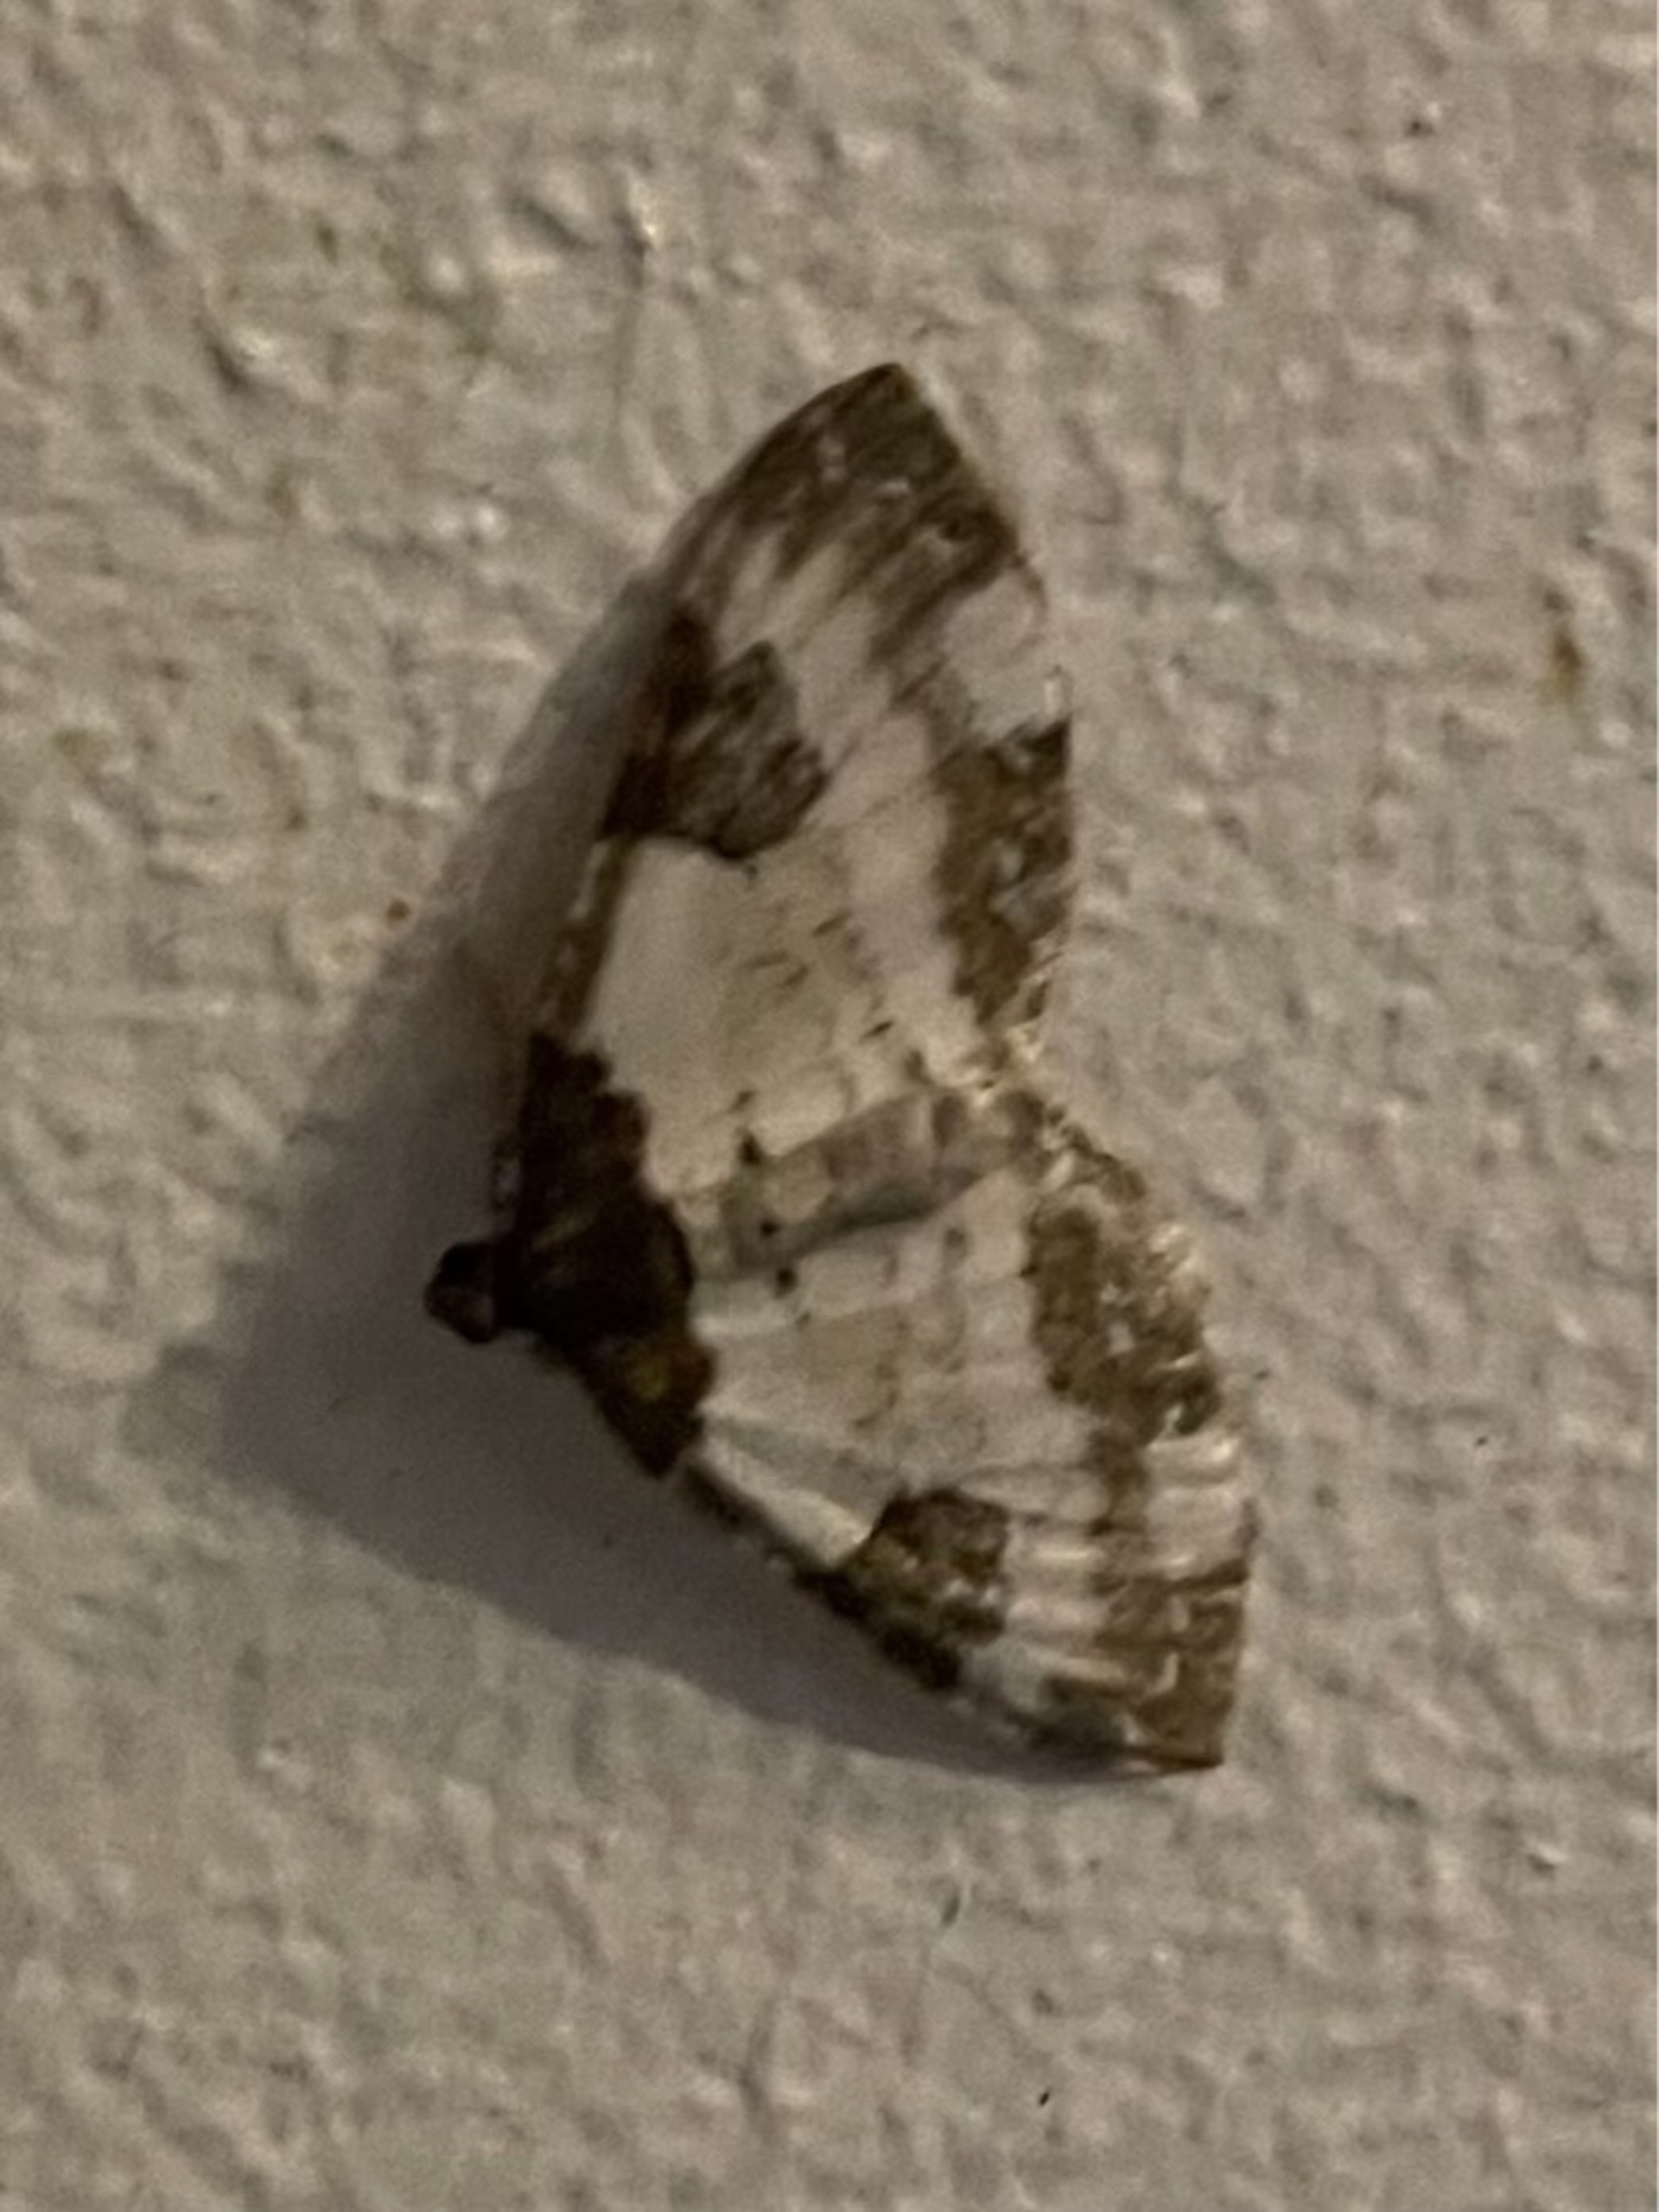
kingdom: Animalia
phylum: Arthropoda
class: Insecta
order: Lepidoptera
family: Geometridae
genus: Melanthia
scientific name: Melanthia procellata
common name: Klematismåler
